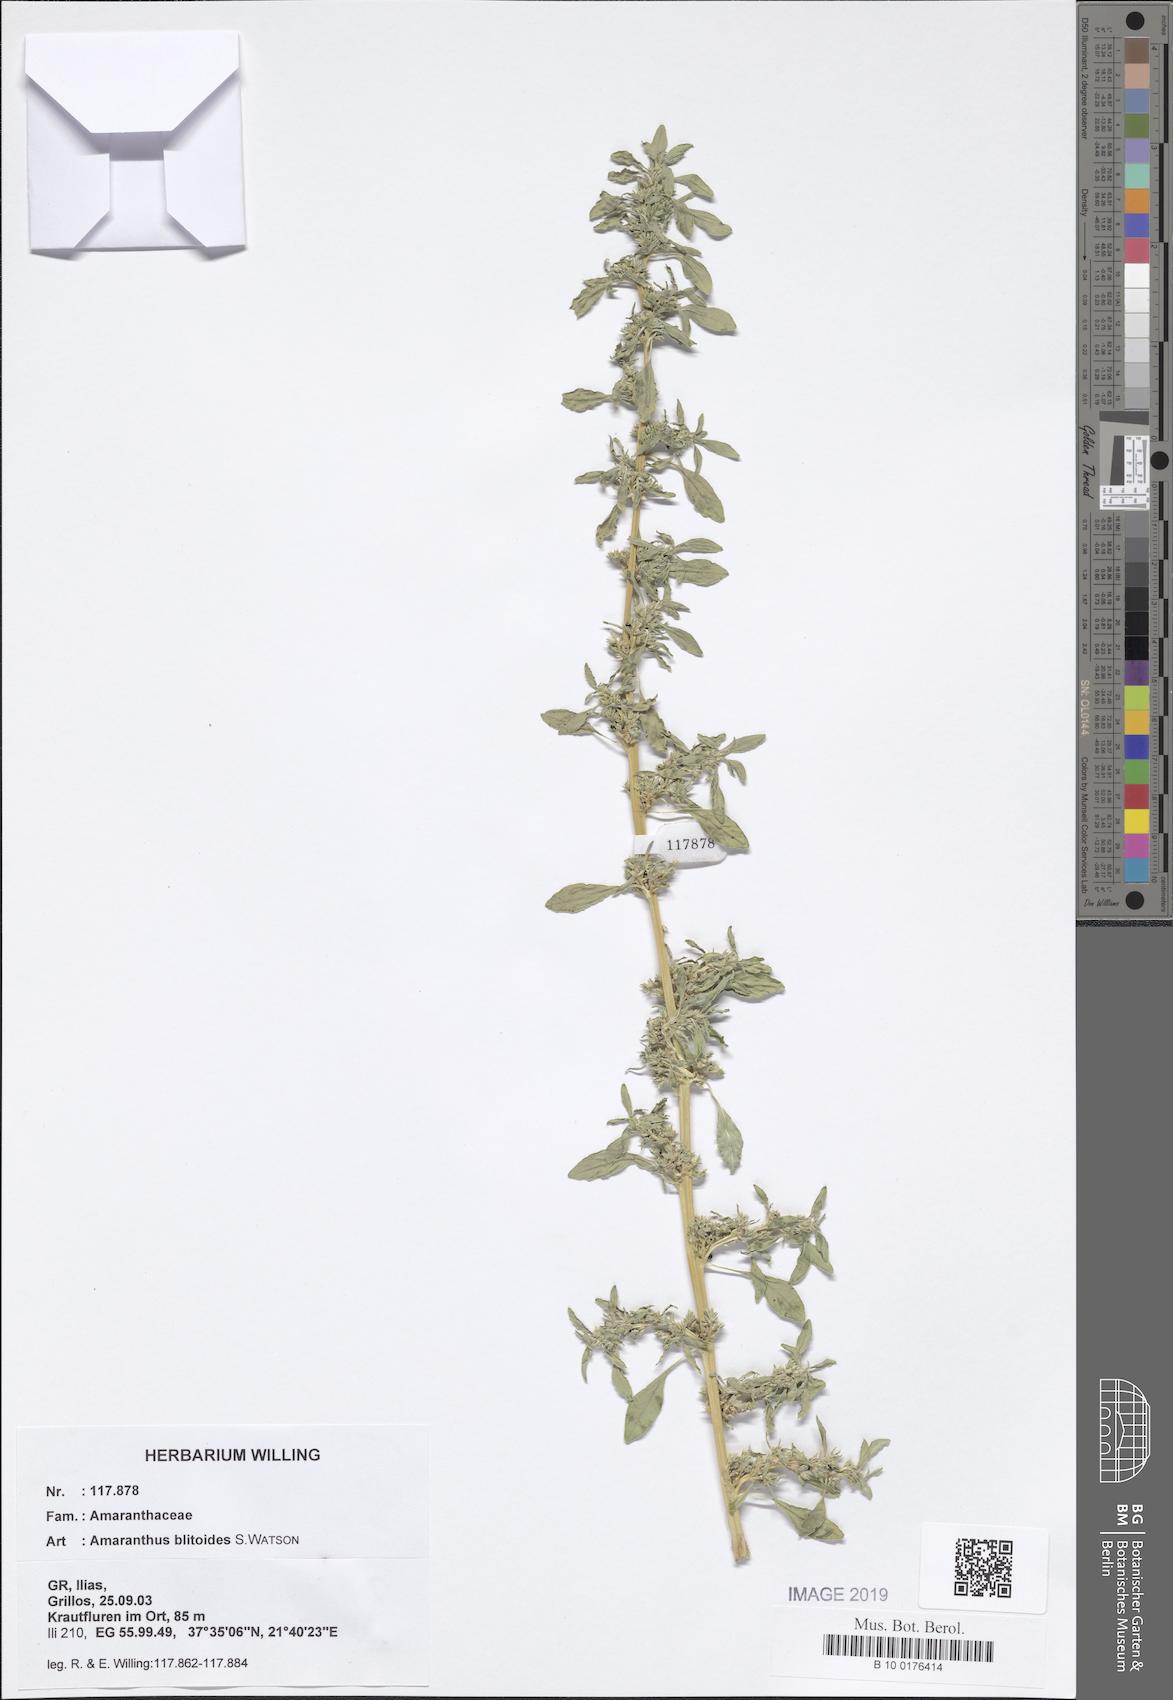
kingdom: Plantae
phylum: Tracheophyta
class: Magnoliopsida
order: Caryophyllales
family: Amaranthaceae
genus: Amaranthus
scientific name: Amaranthus blitoides
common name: Prostrate pigweed
